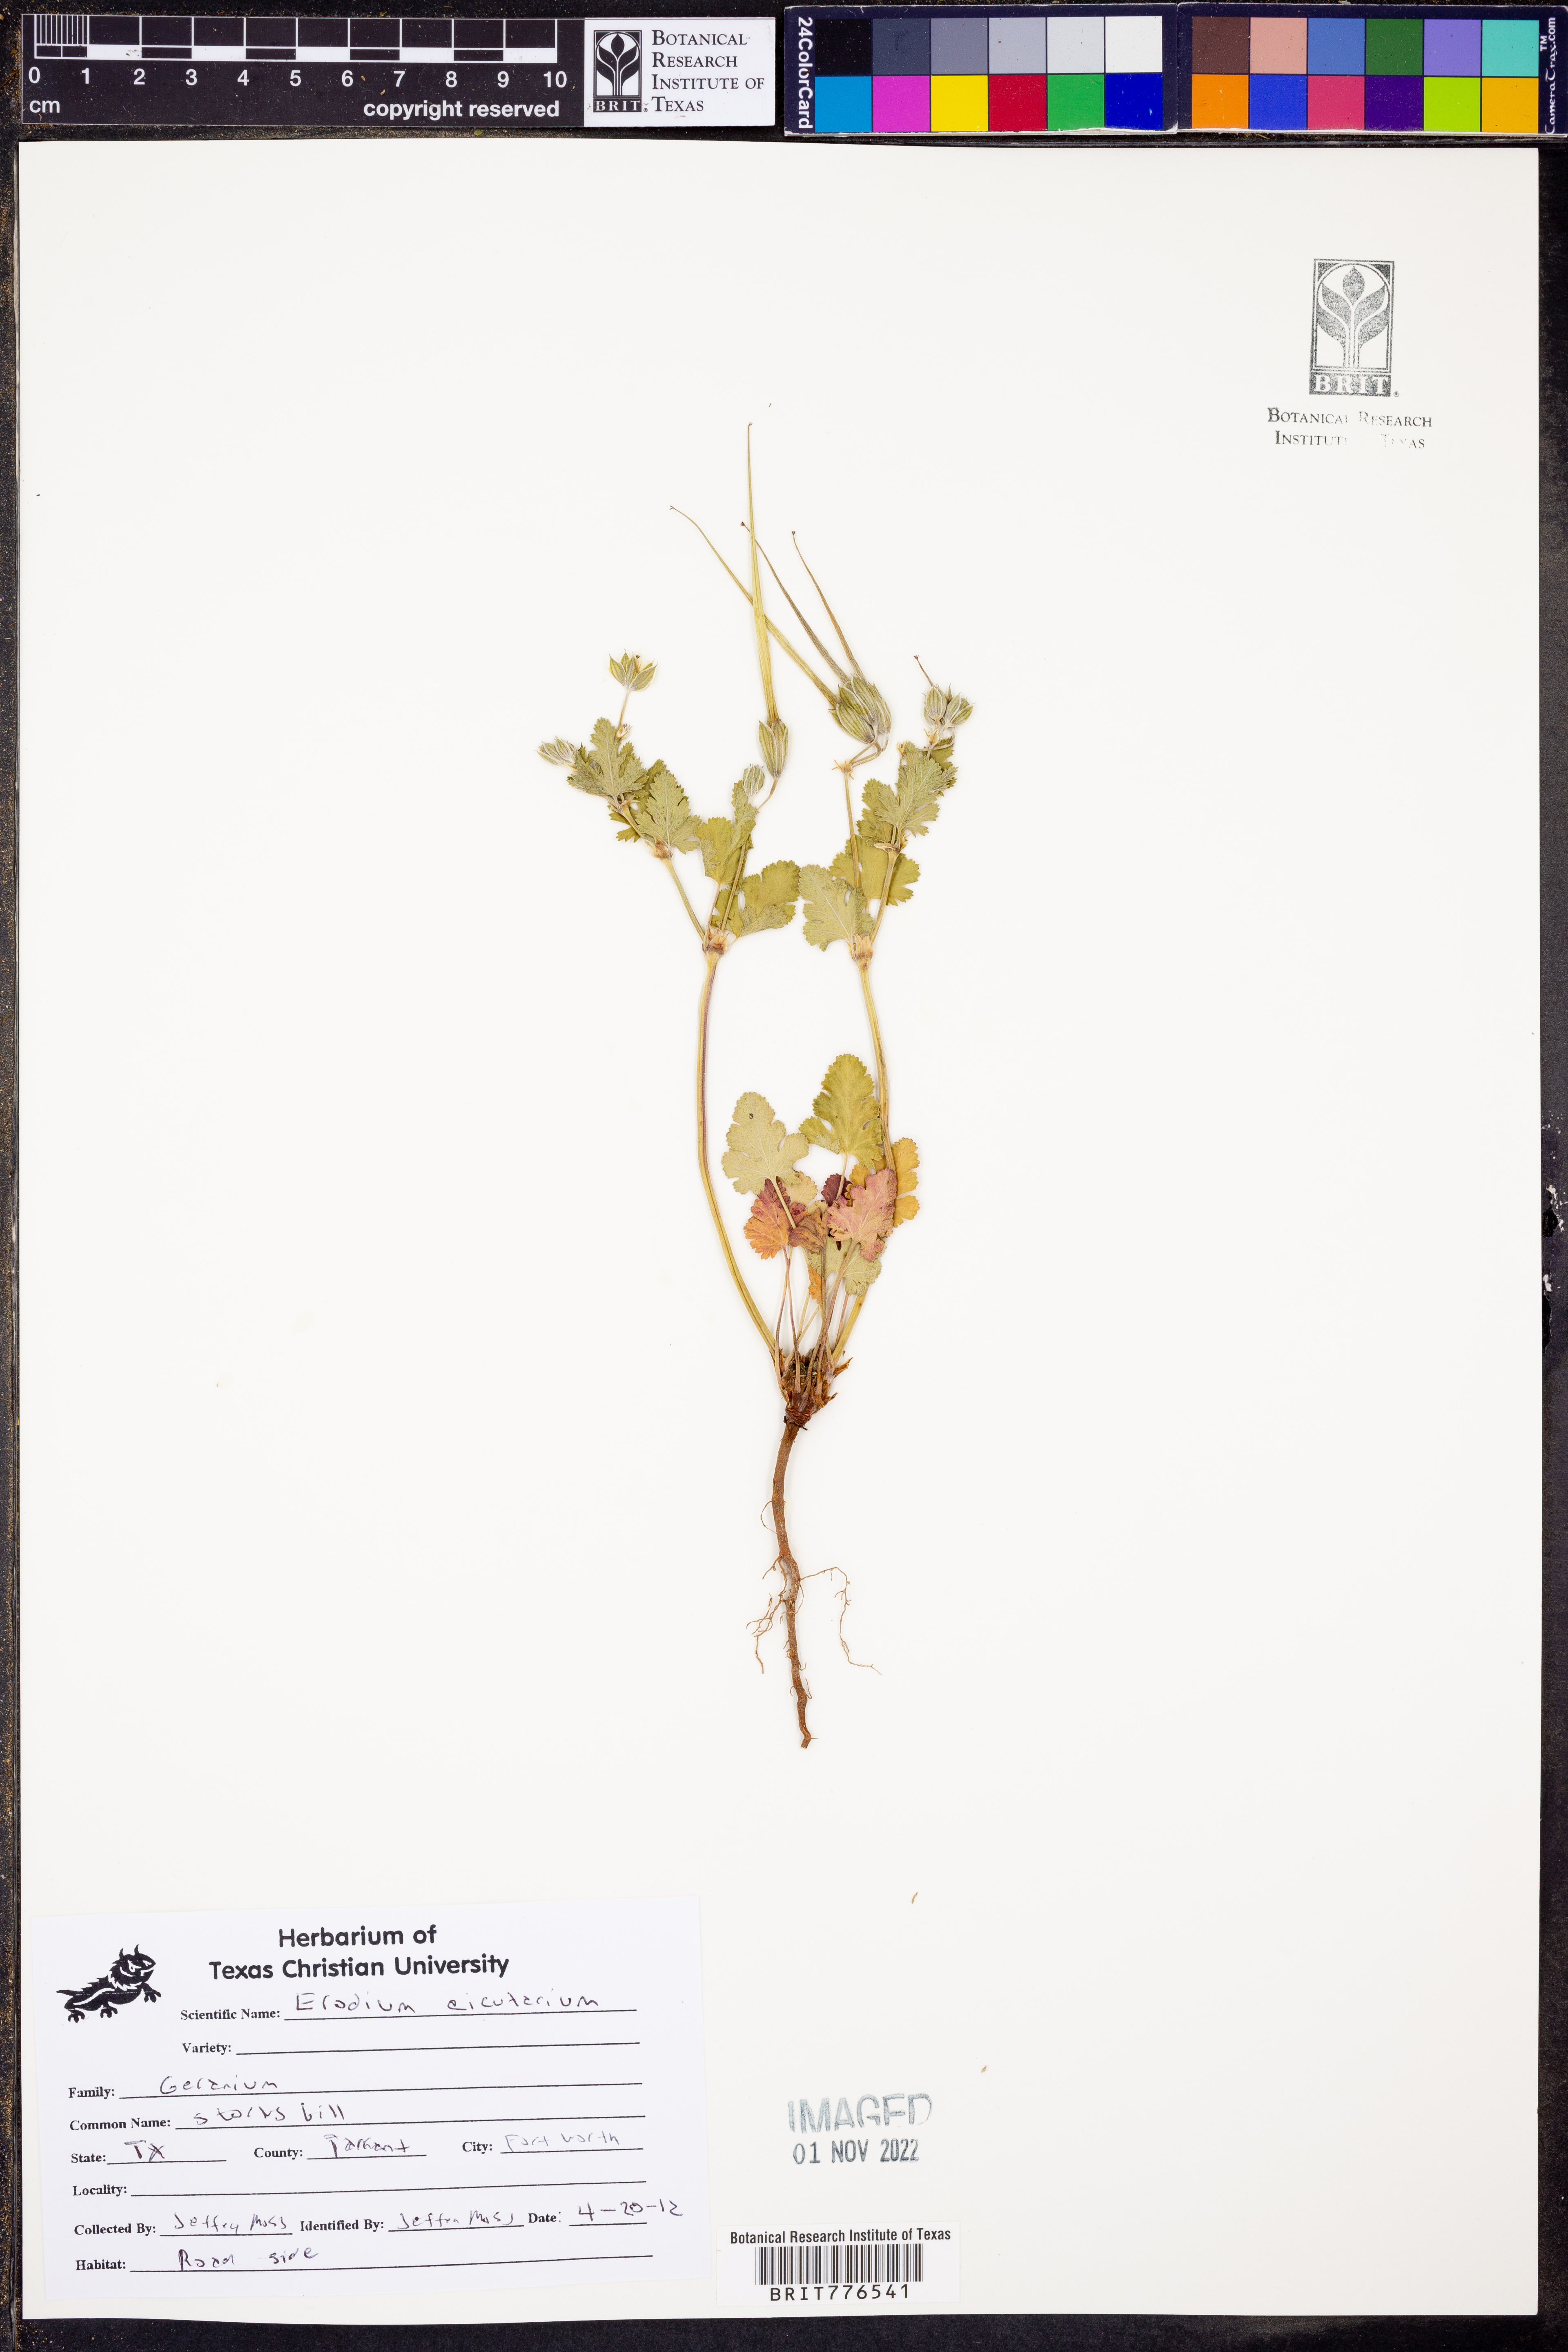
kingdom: Plantae
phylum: Tracheophyta
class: Magnoliopsida
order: Geraniales
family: Geraniaceae
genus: Erodium
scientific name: Erodium cicutarium
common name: Common stork's-bill
